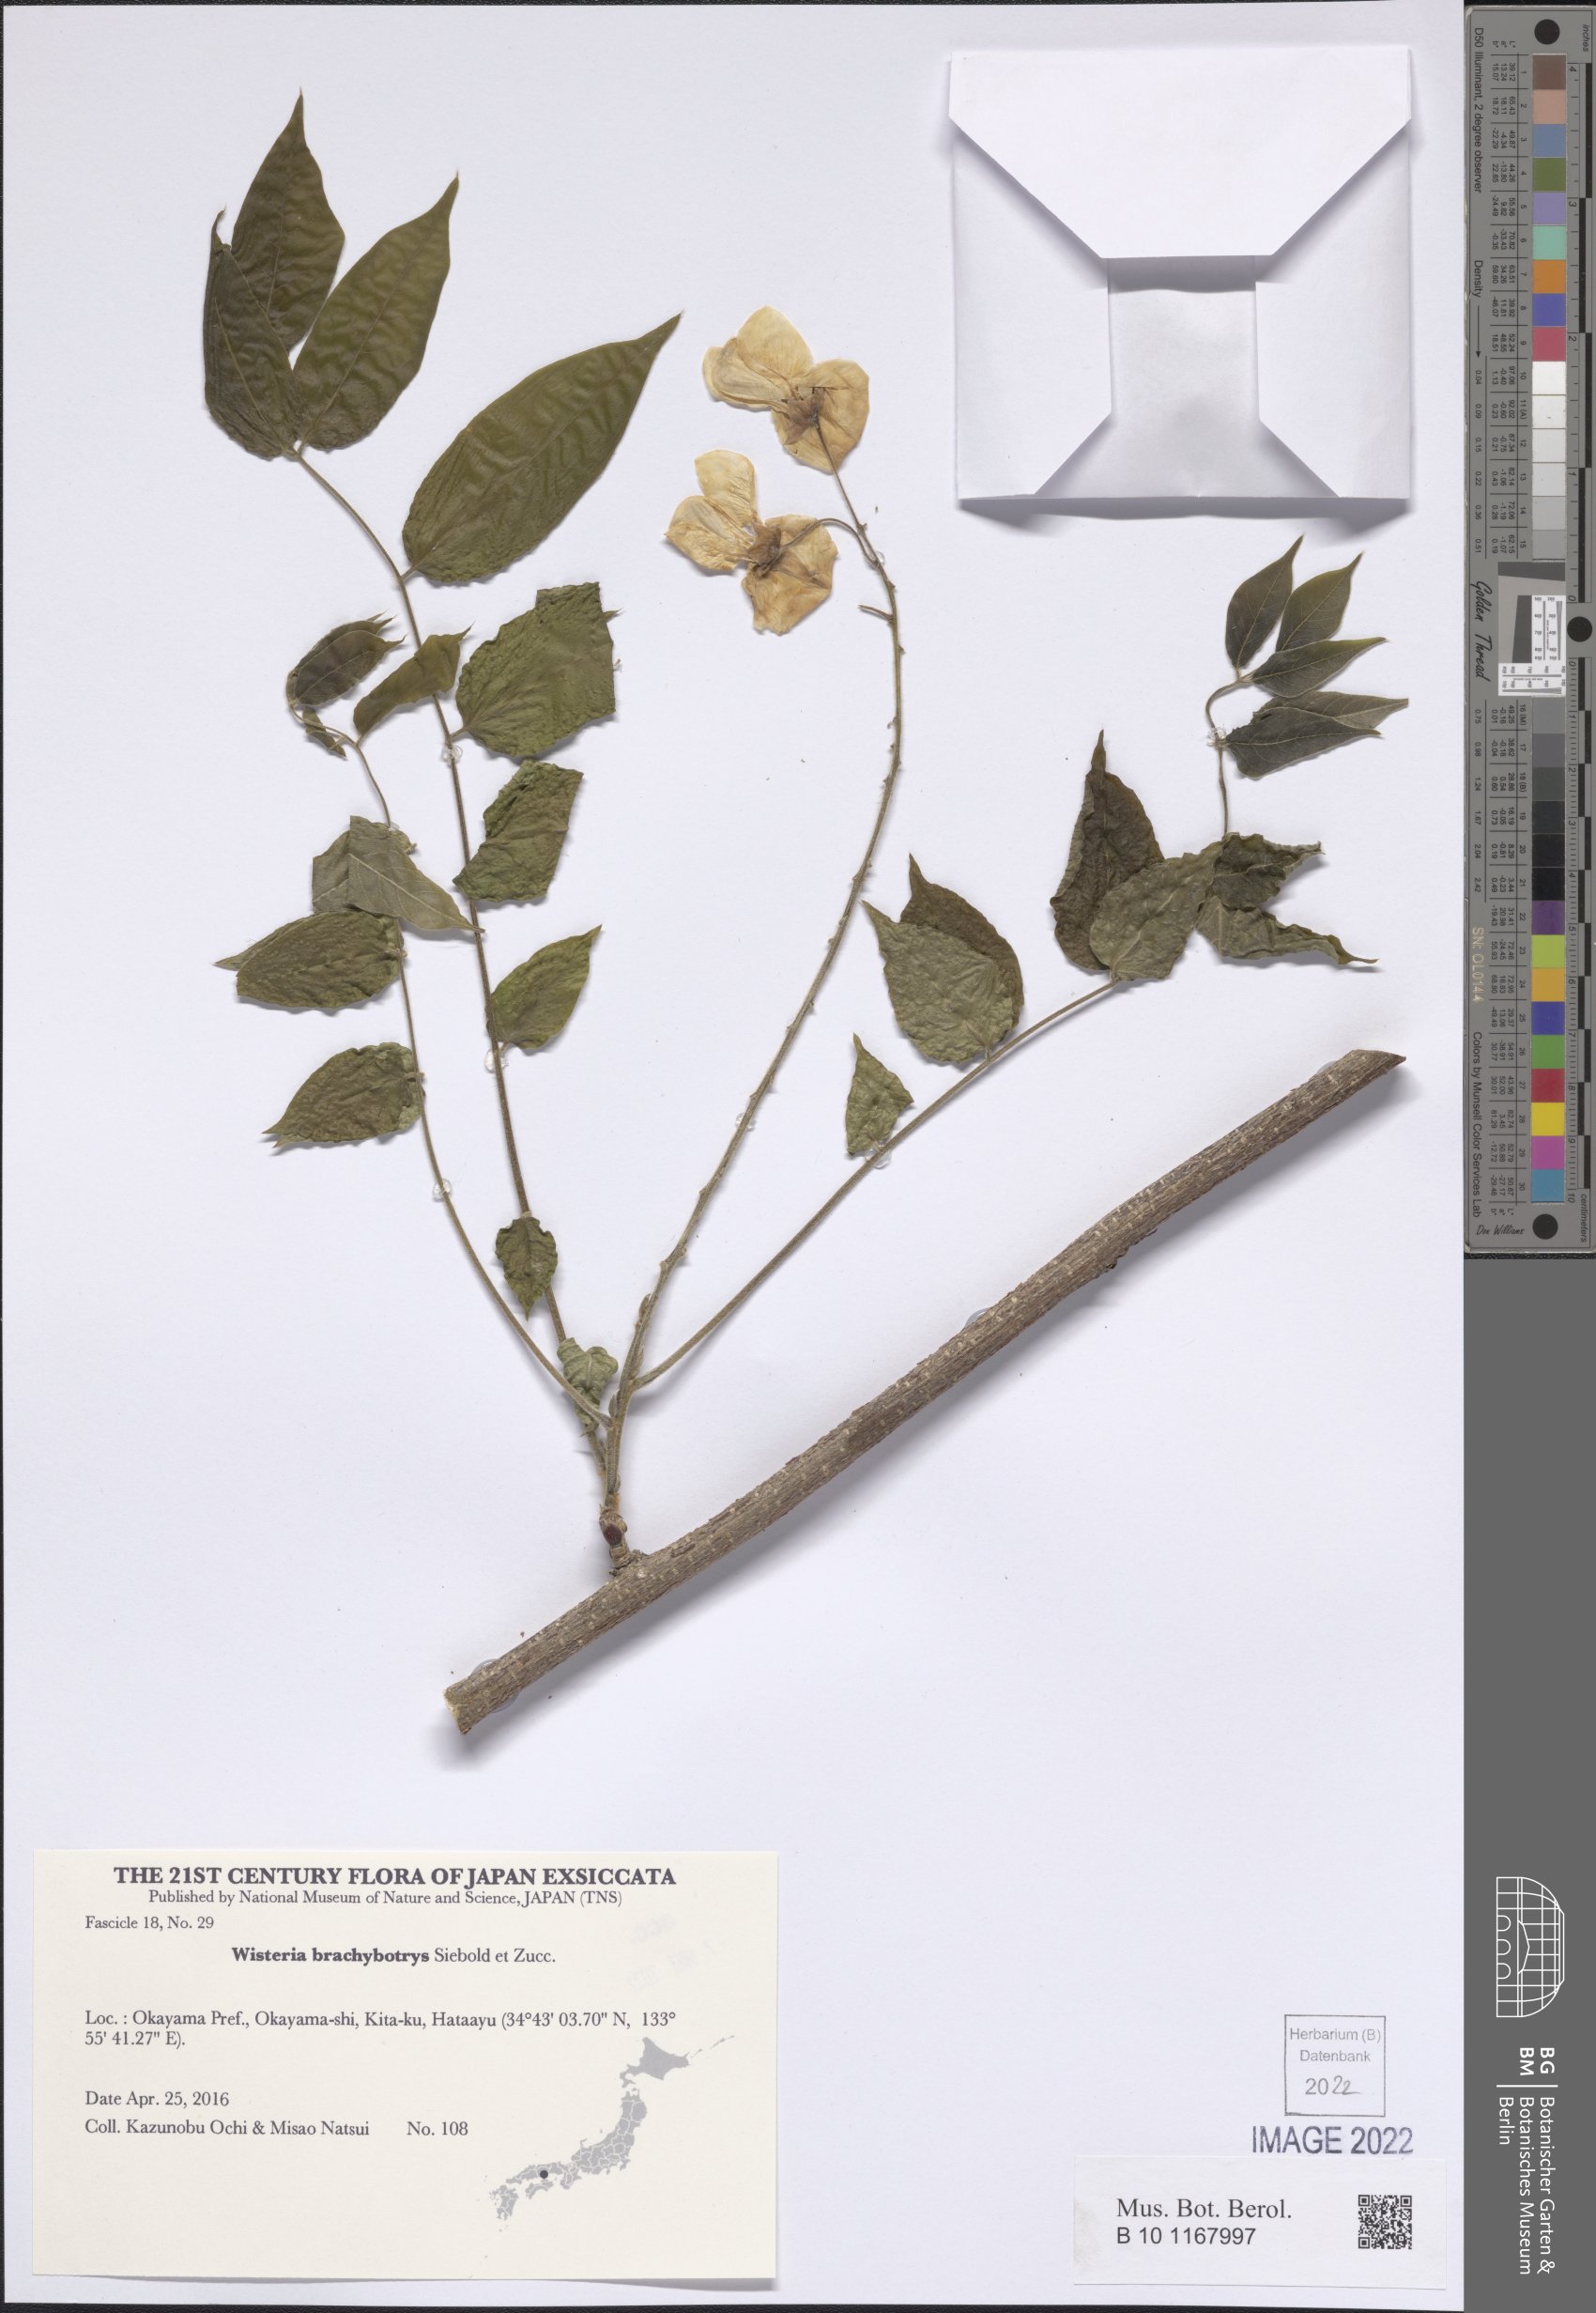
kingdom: Plantae
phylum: Tracheophyta
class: Magnoliopsida
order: Fabales
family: Fabaceae
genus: Wisteria
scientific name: Wisteria brachybotrys
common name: Silky wisteria
